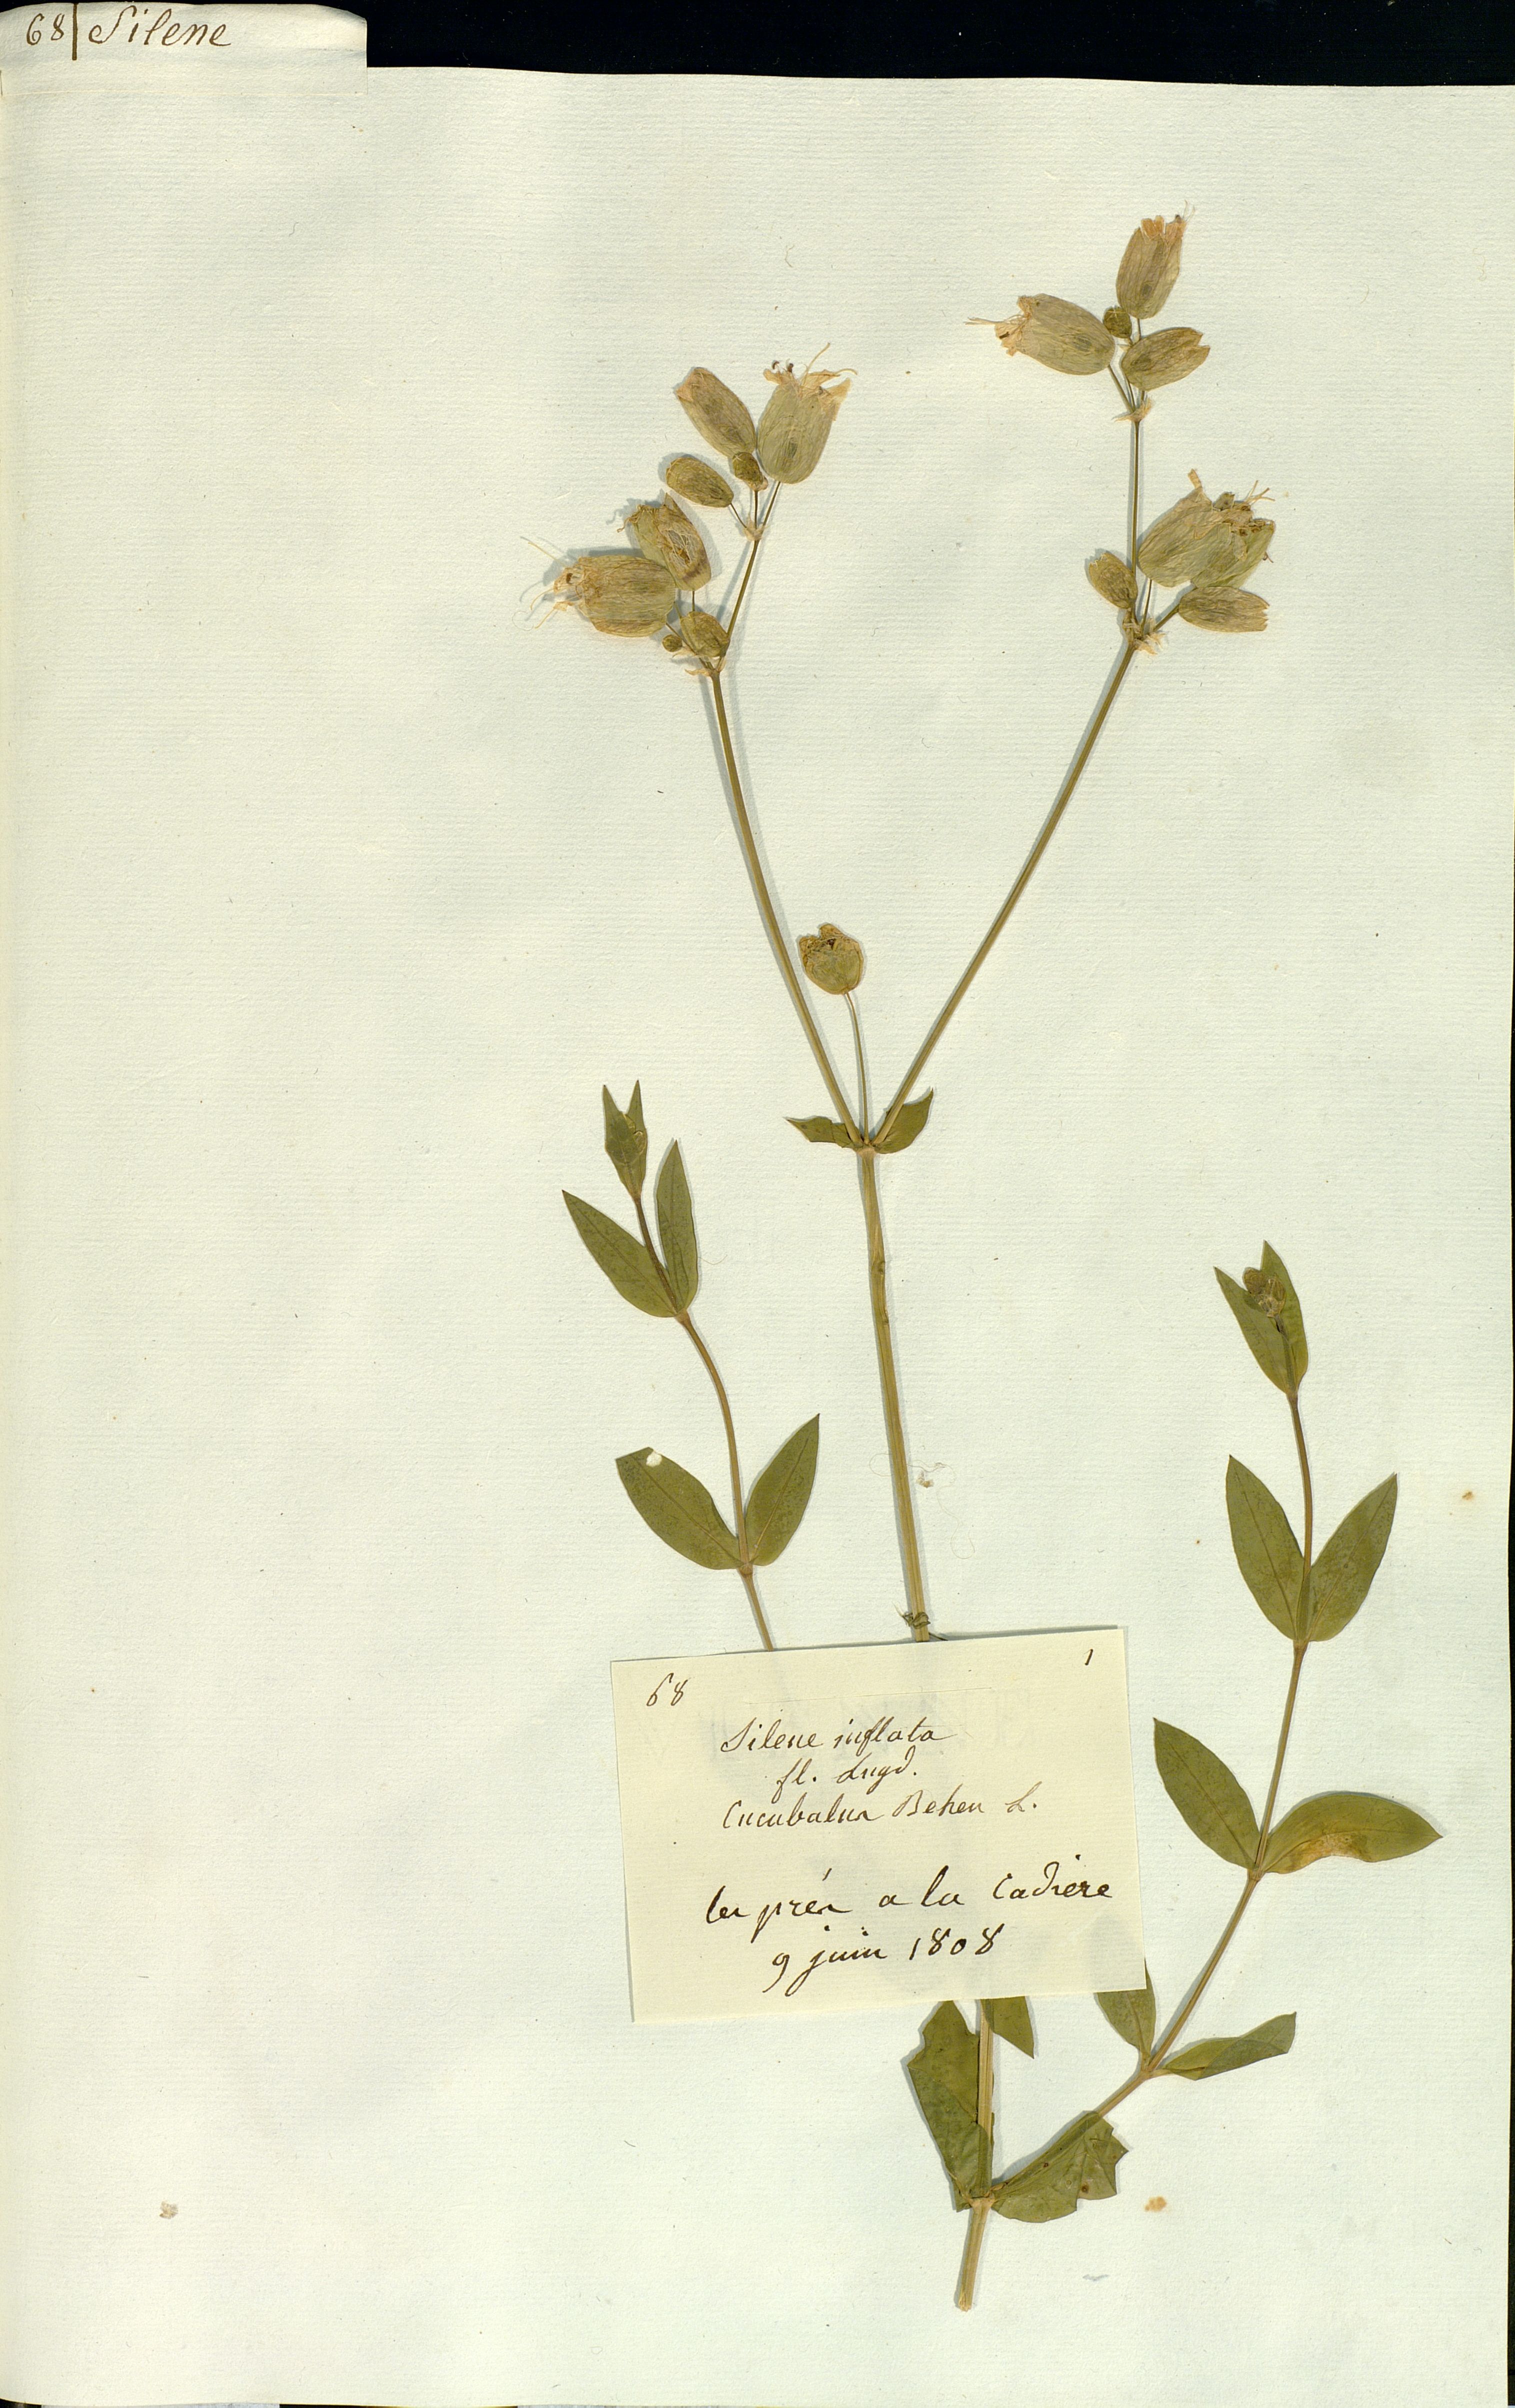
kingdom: Plantae
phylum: Tracheophyta
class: Magnoliopsida
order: Caryophyllales
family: Caryophyllaceae
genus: Silene
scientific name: Silene vulgaris
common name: Bladder campion
